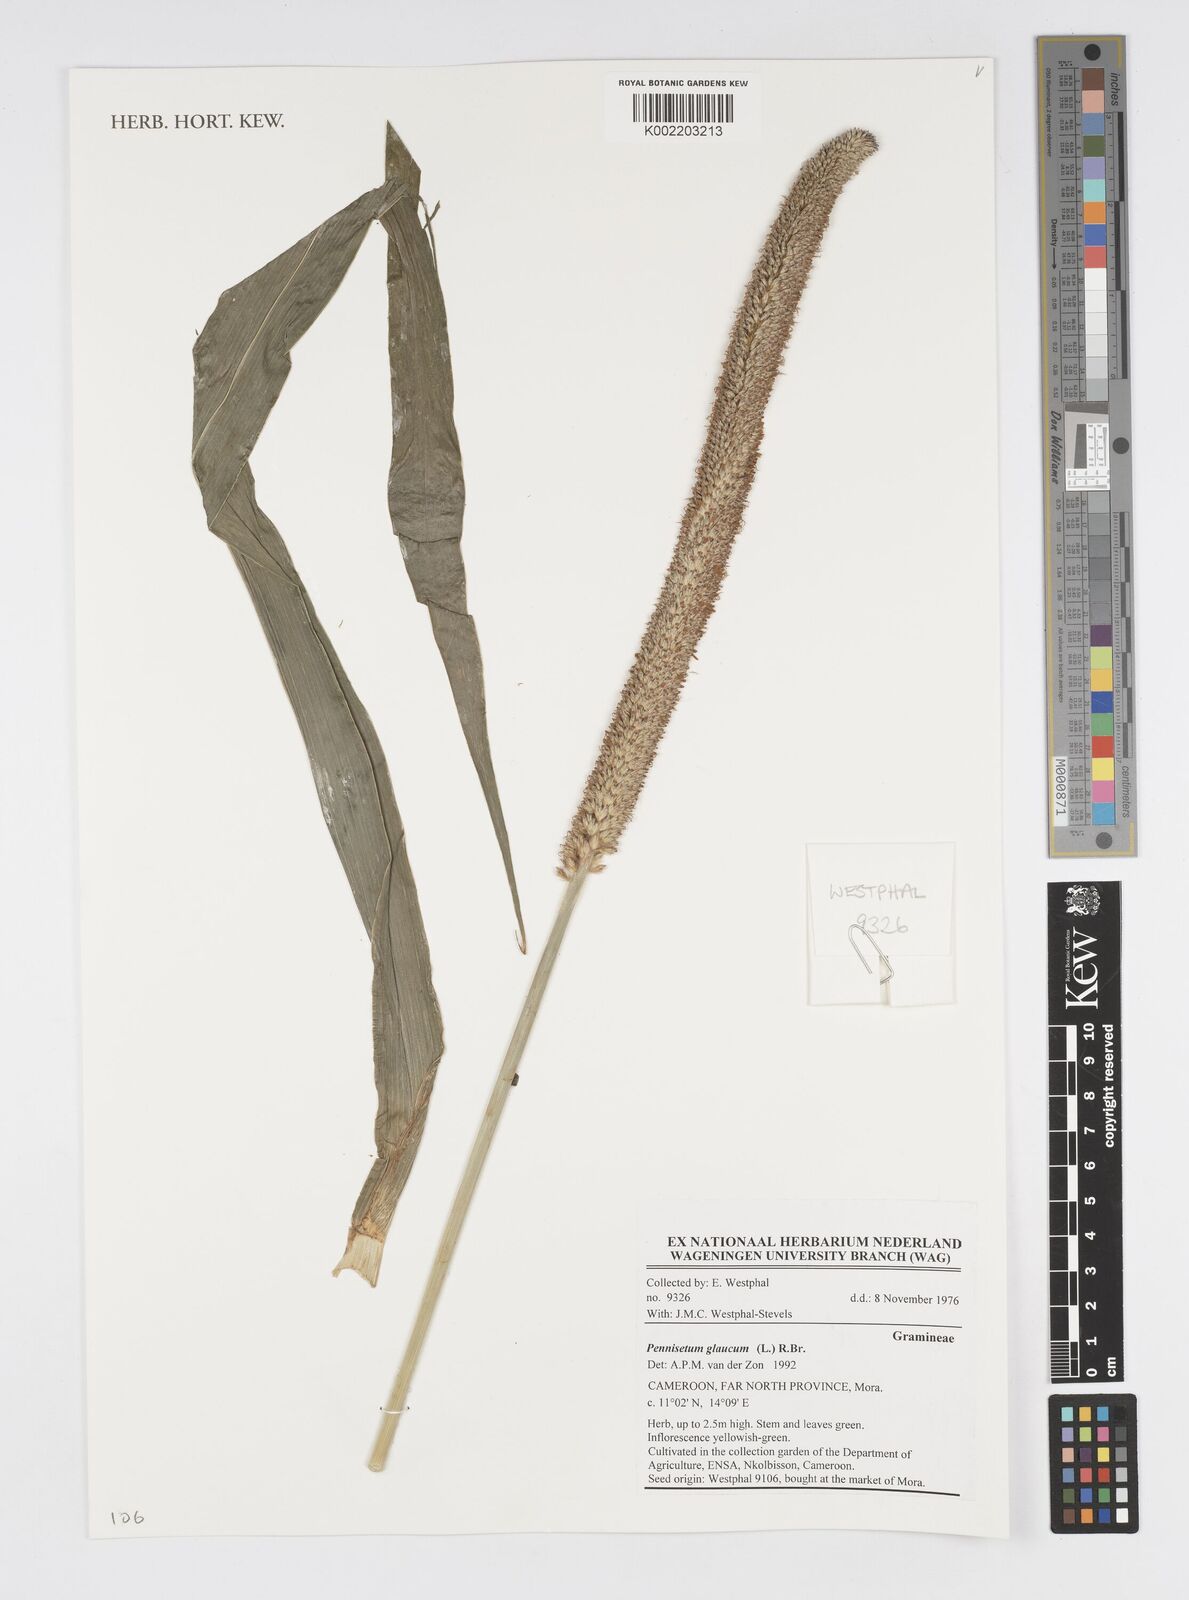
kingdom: Plantae
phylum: Tracheophyta
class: Liliopsida
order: Poales
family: Poaceae
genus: Cenchrus
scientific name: Cenchrus americanus
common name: Pearl millet
